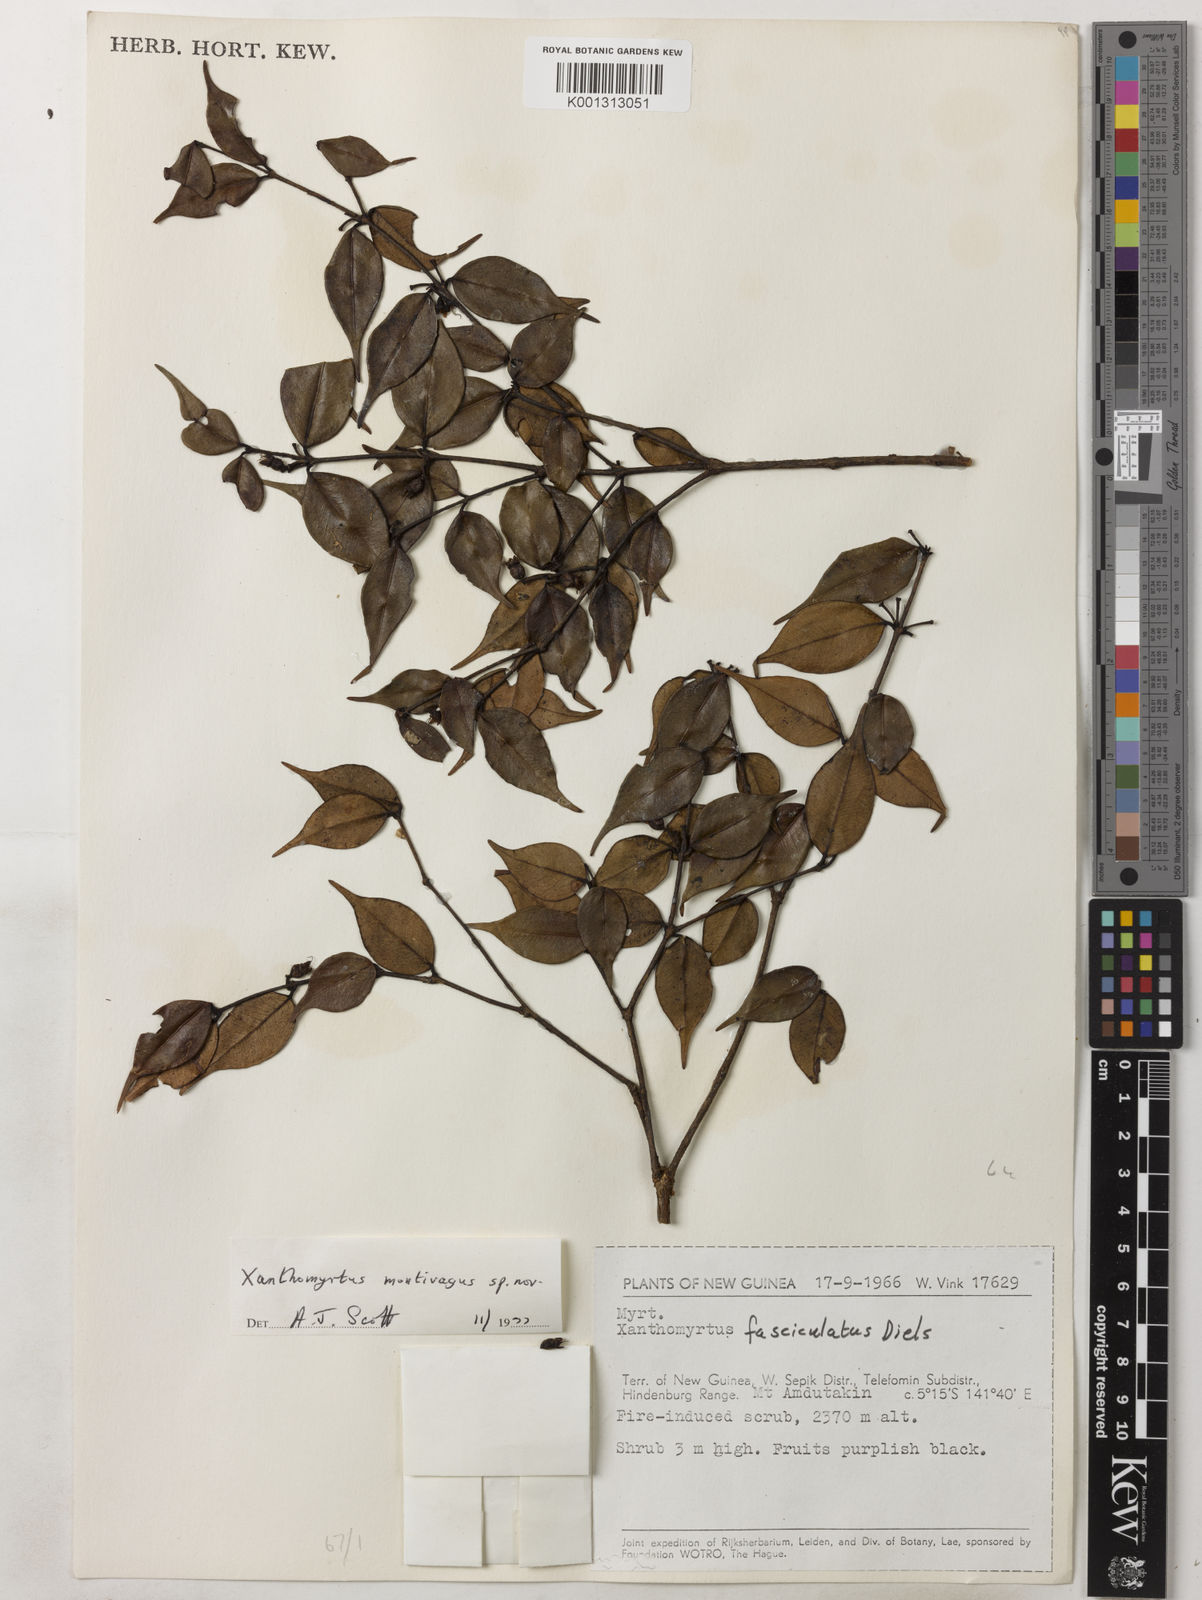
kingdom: Plantae
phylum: Tracheophyta
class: Magnoliopsida
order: Myrtales
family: Myrtaceae
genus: Xanthomyrtus
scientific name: Xanthomyrtus montivaga
